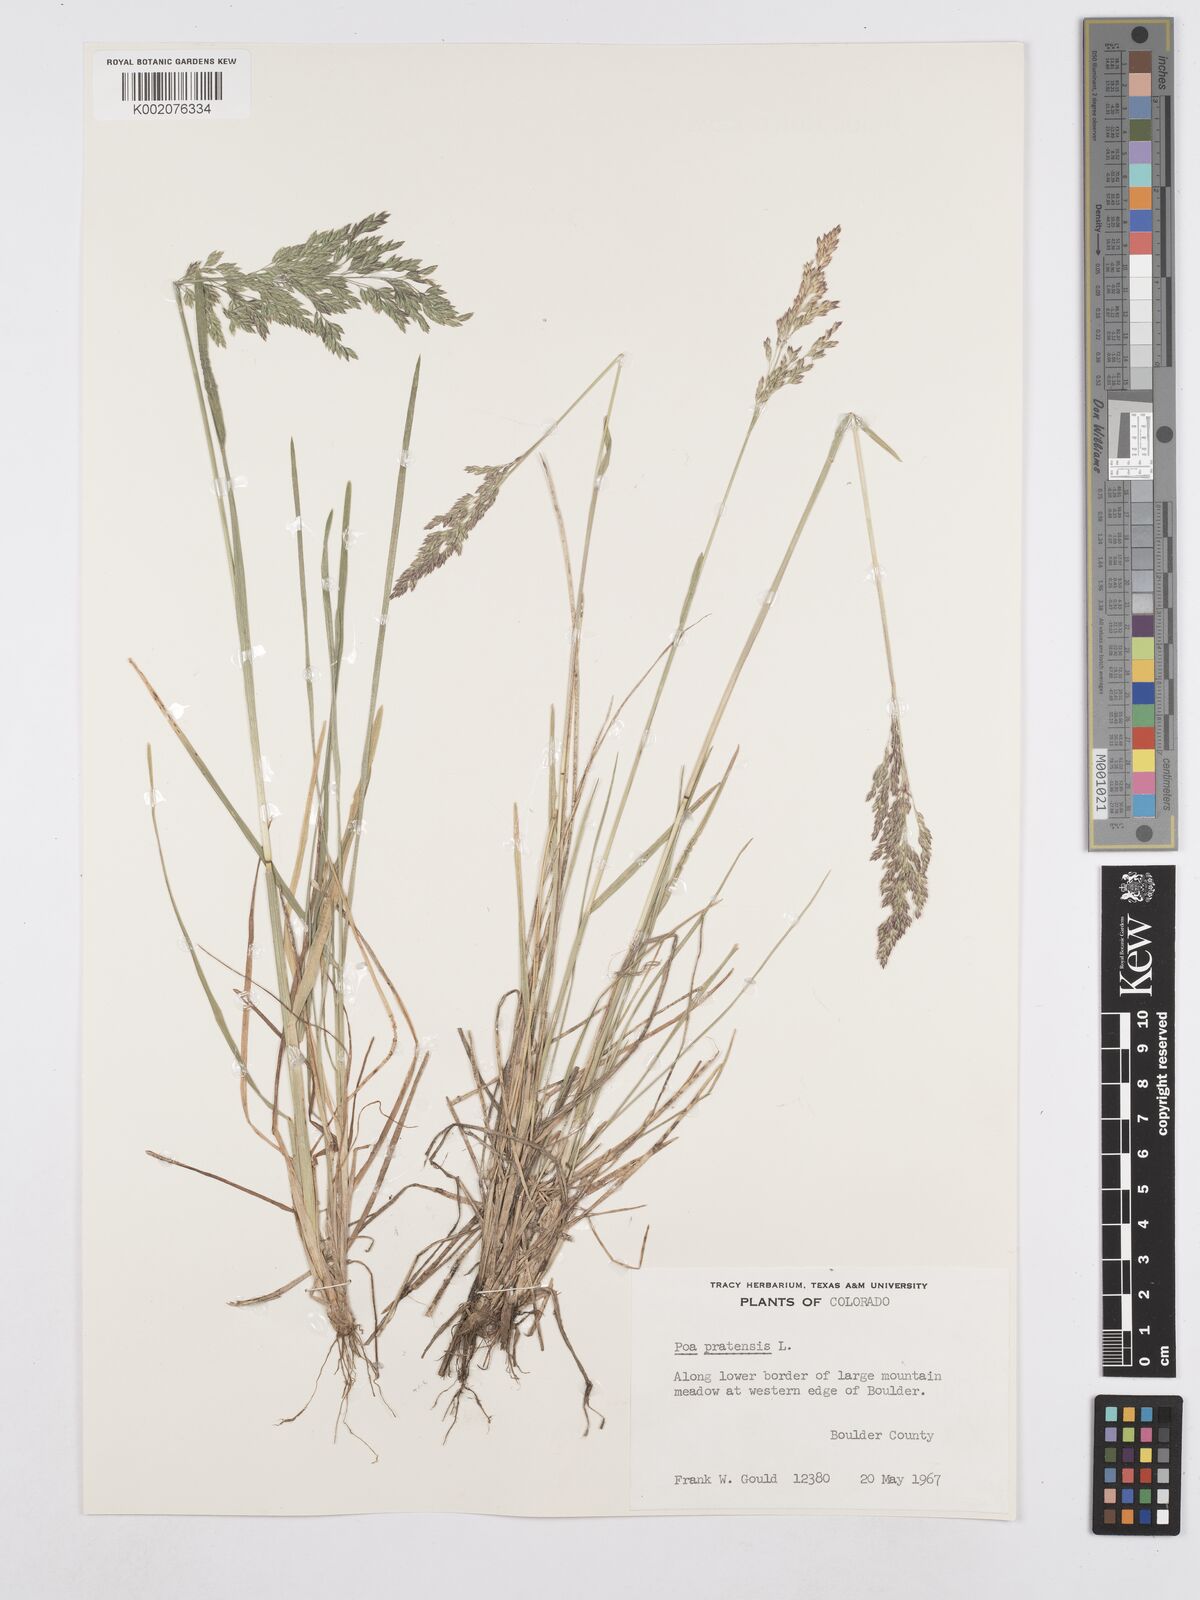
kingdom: Plantae
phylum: Tracheophyta
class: Liliopsida
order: Poales
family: Poaceae
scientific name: Poaceae
